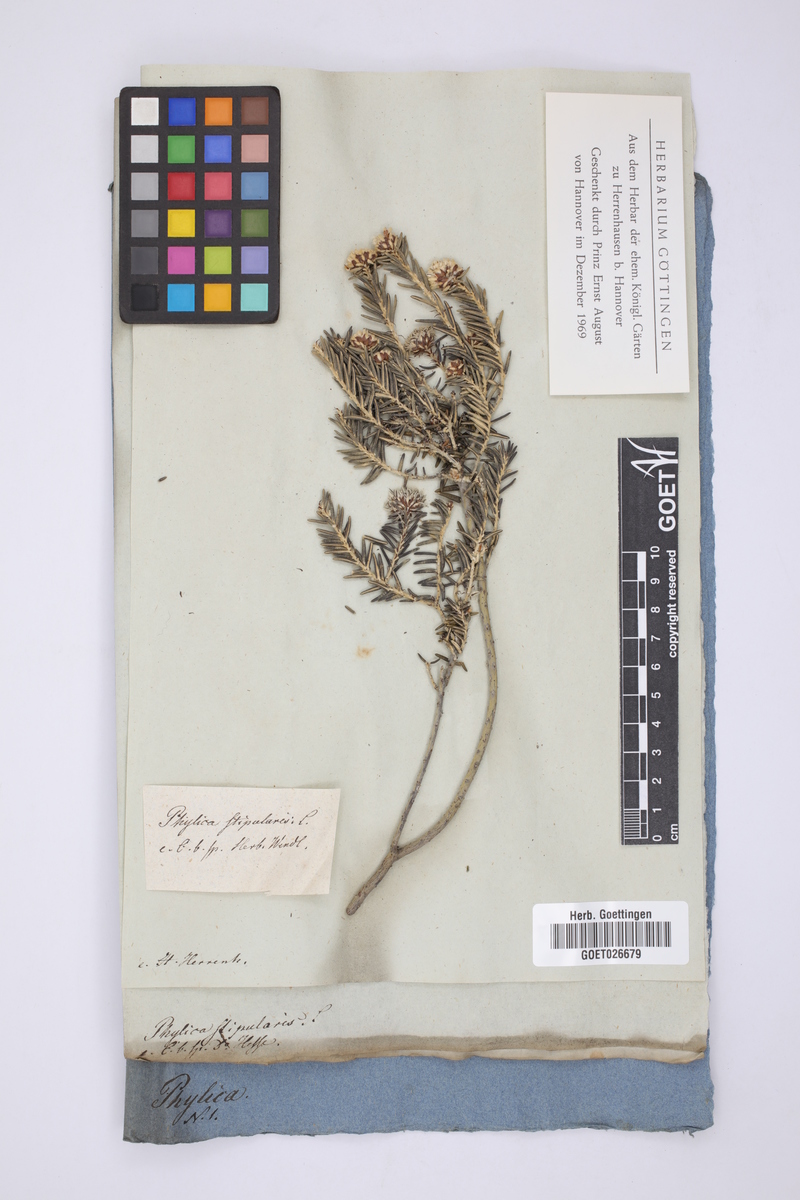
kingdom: Plantae
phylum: Tracheophyta
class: Magnoliopsida
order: Rosales
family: Rhamnaceae
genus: Trichocephalus
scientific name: Trichocephalus stipularis
